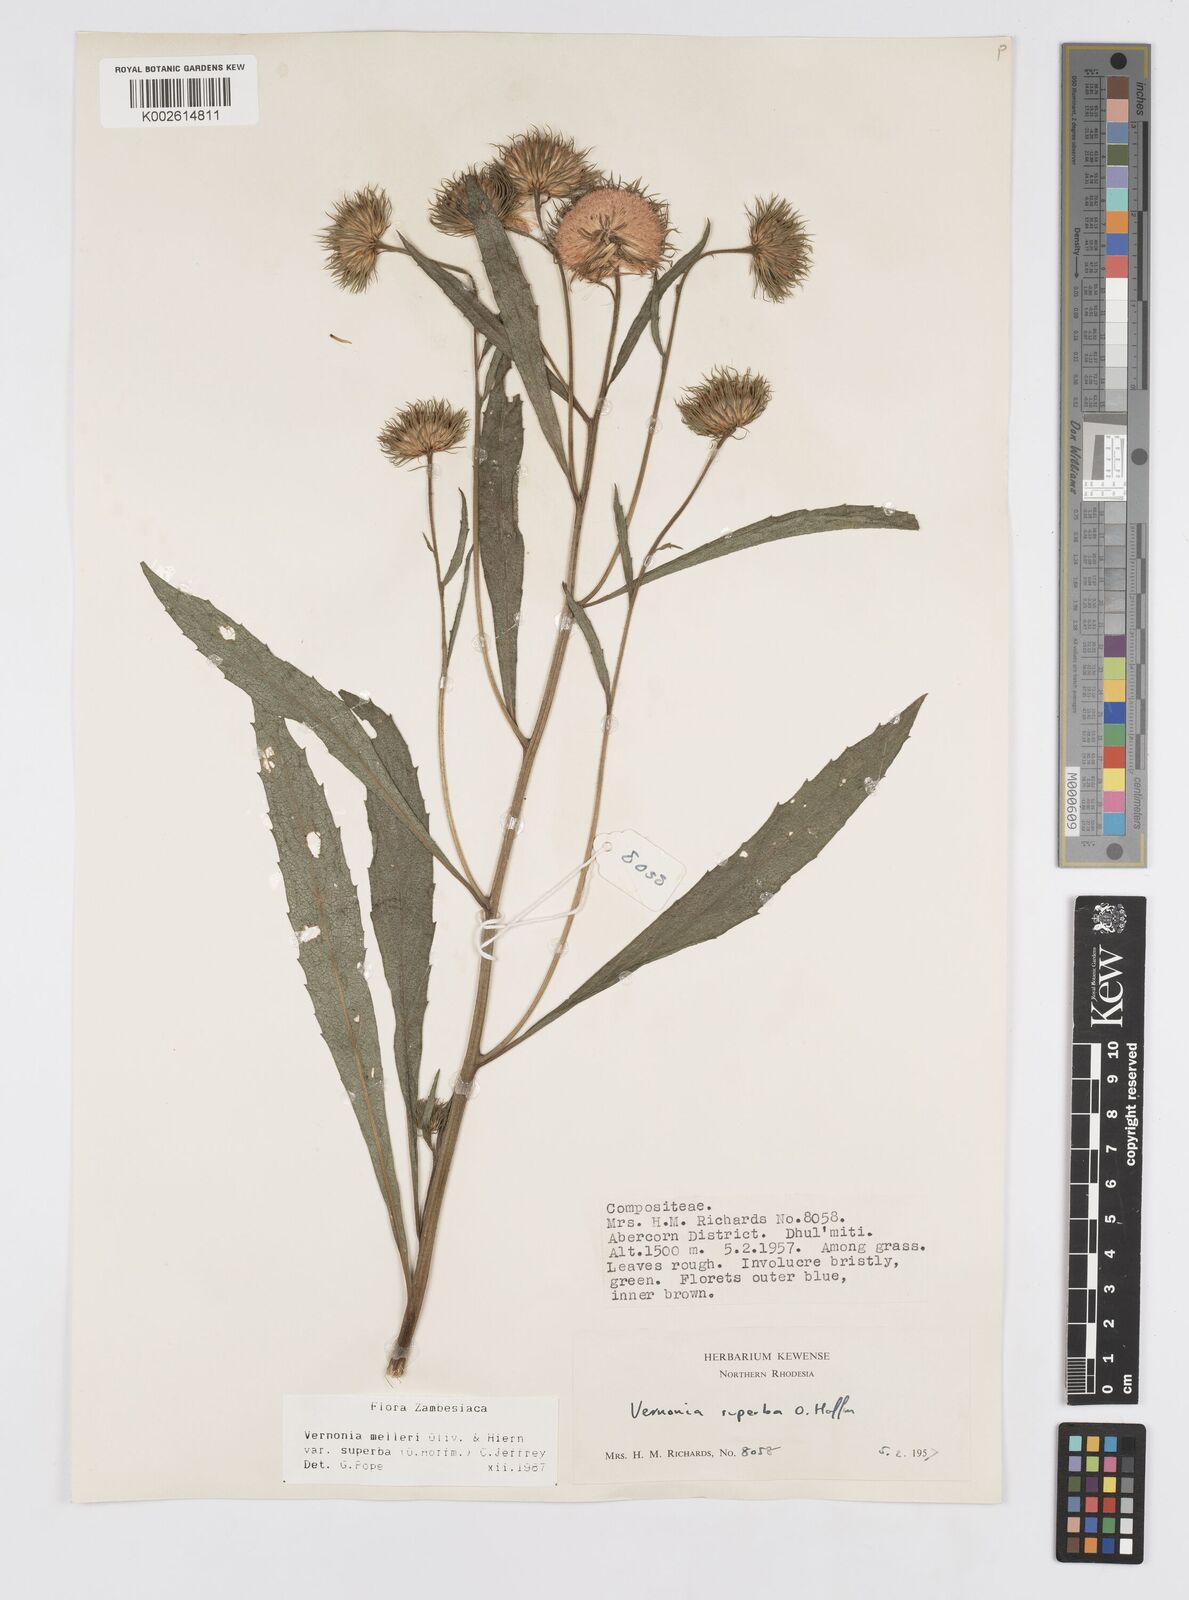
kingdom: Plantae
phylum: Tracheophyta
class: Magnoliopsida
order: Asterales
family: Asteraceae
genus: Linzia
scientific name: Linzia melleri
